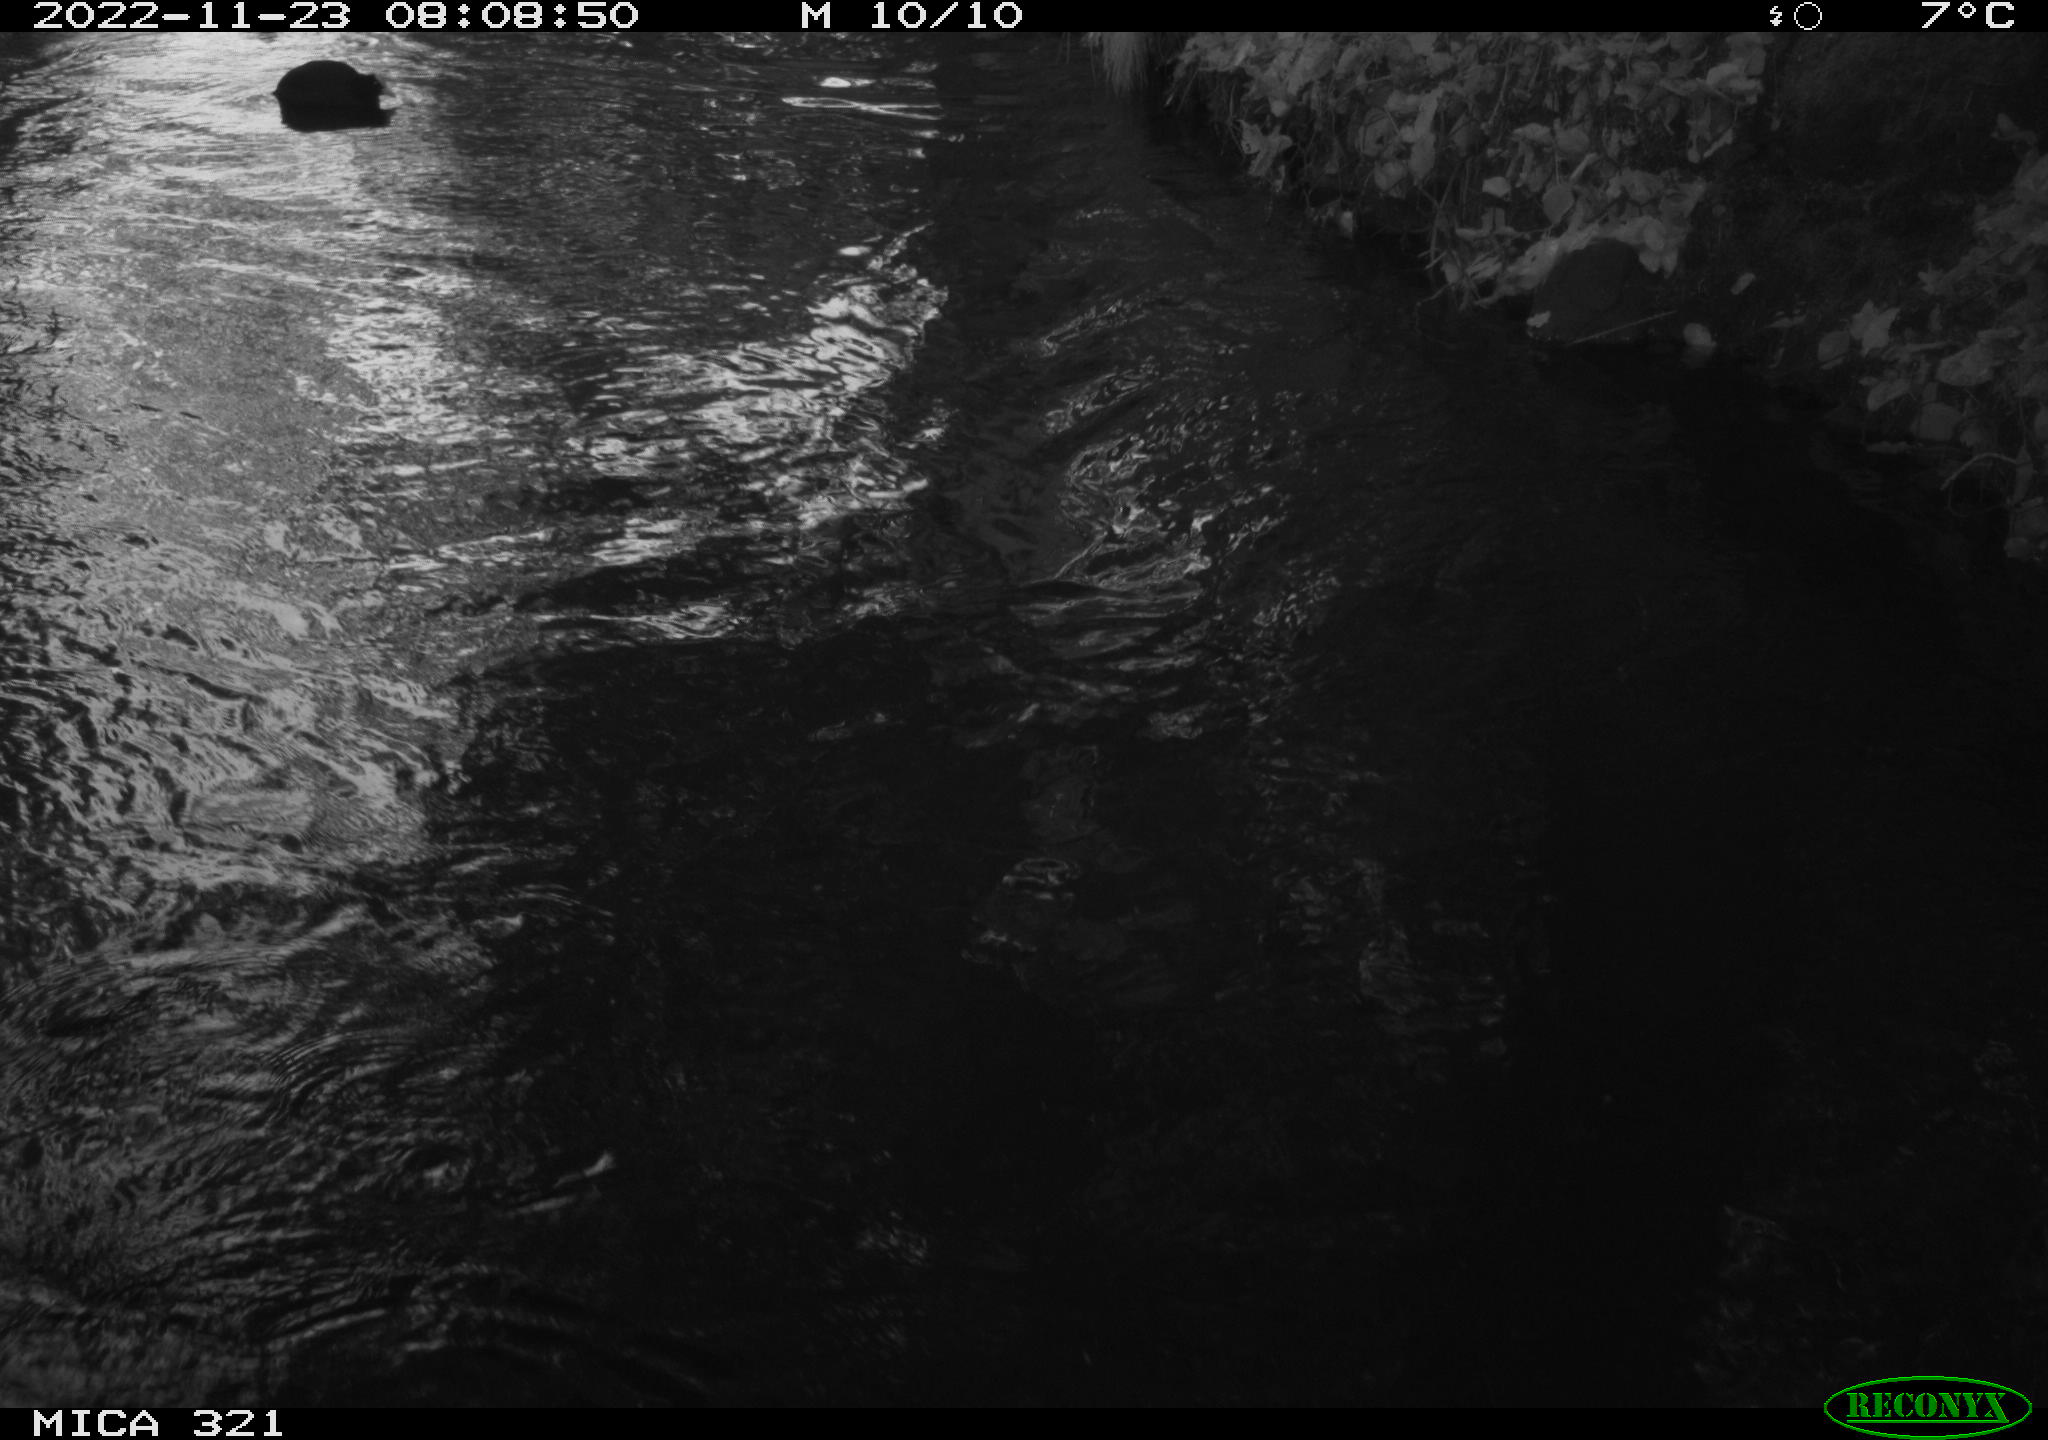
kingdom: Animalia
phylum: Chordata
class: Aves
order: Gruiformes
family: Rallidae
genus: Fulica
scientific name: Fulica atra
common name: Eurasian coot
